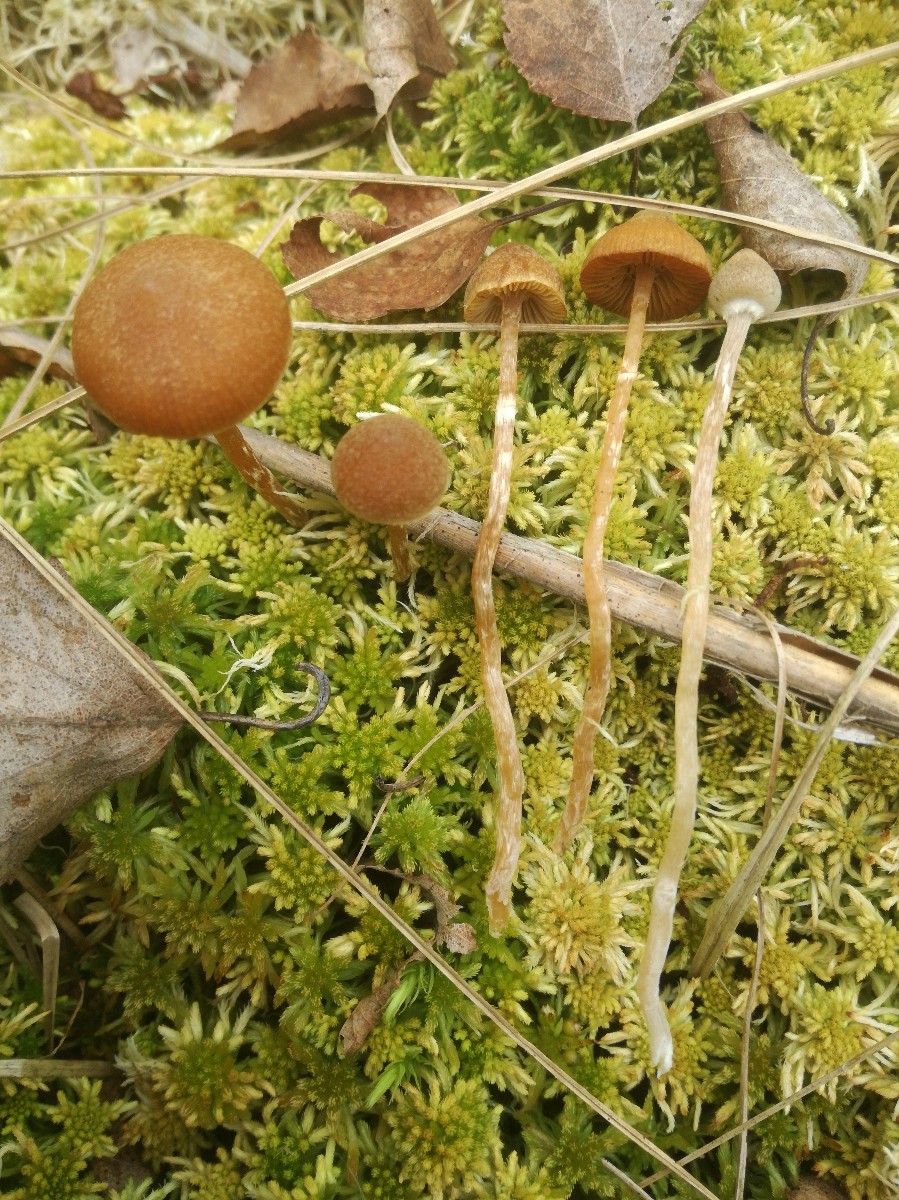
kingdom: Fungi
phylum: Basidiomycota
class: Agaricomycetes
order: Agaricales
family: Hymenogastraceae
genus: Galerina
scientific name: Galerina paludosa
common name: mose-hjelmhat
